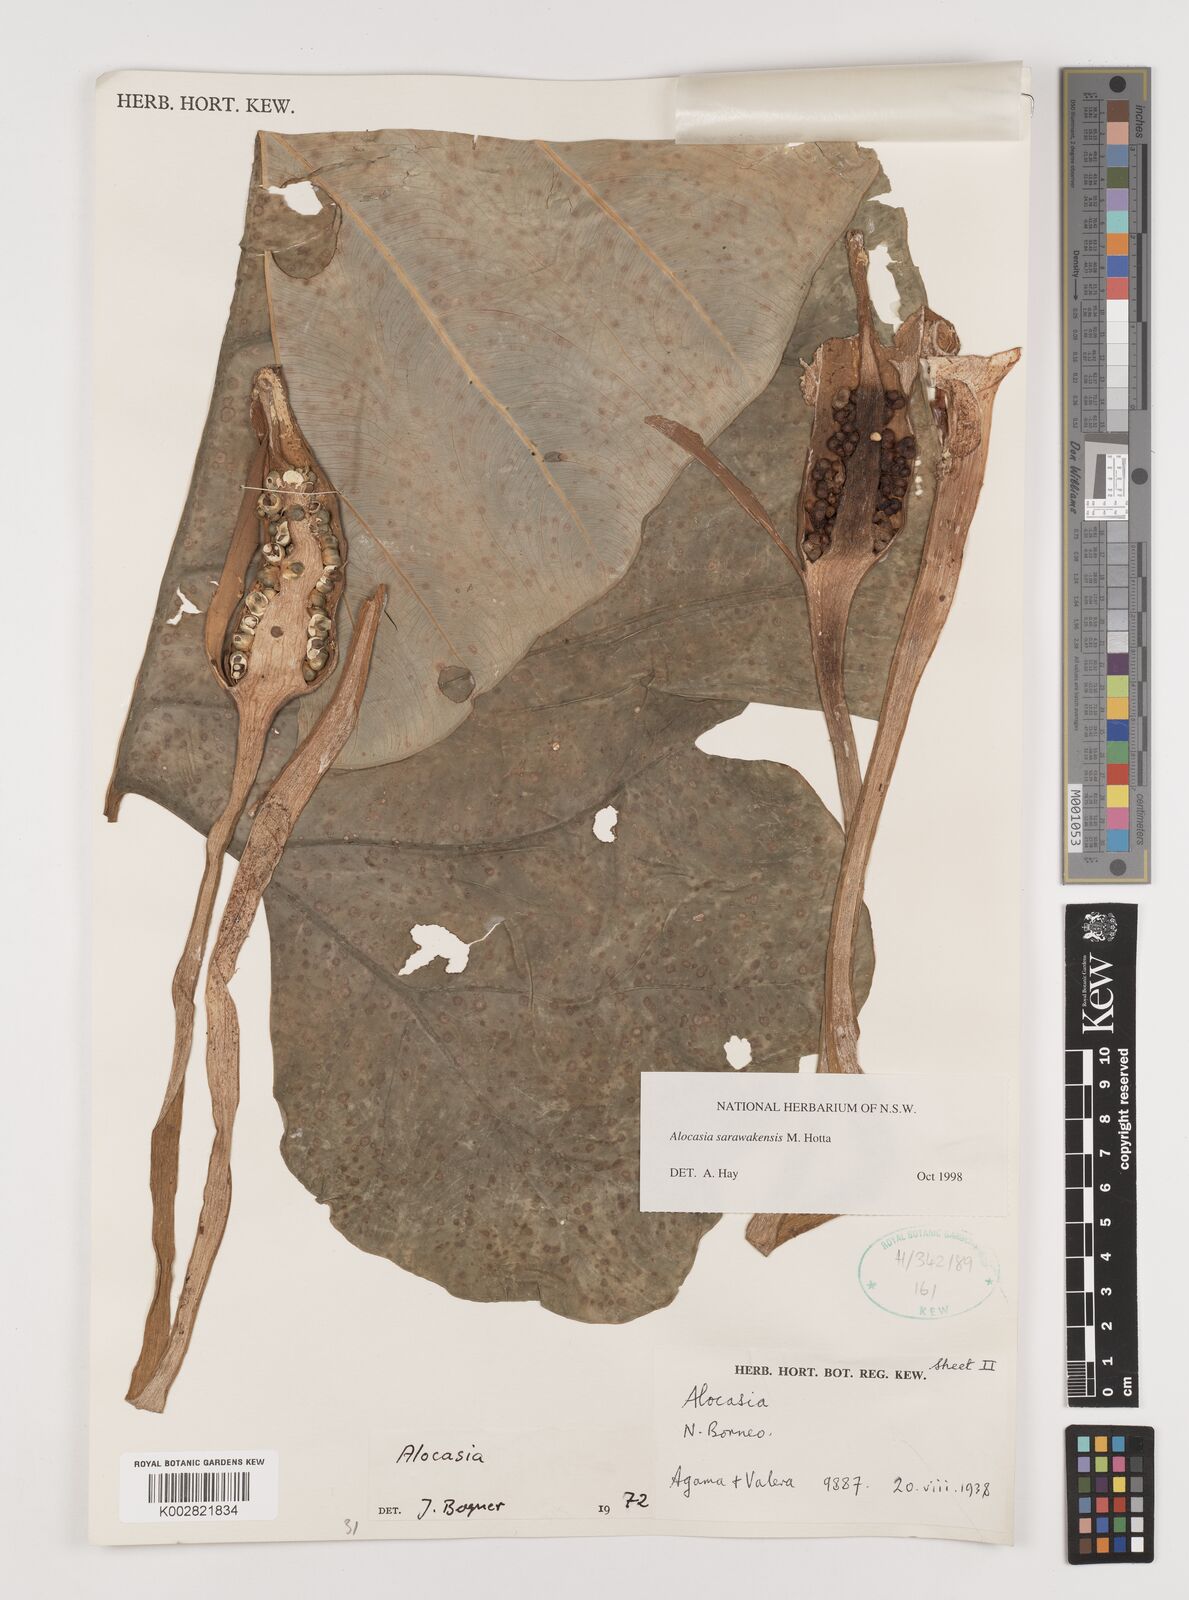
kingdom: Plantae
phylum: Tracheophyta
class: Liliopsida
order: Alismatales
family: Araceae
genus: Alocasia
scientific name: Alocasia sarawakensis
